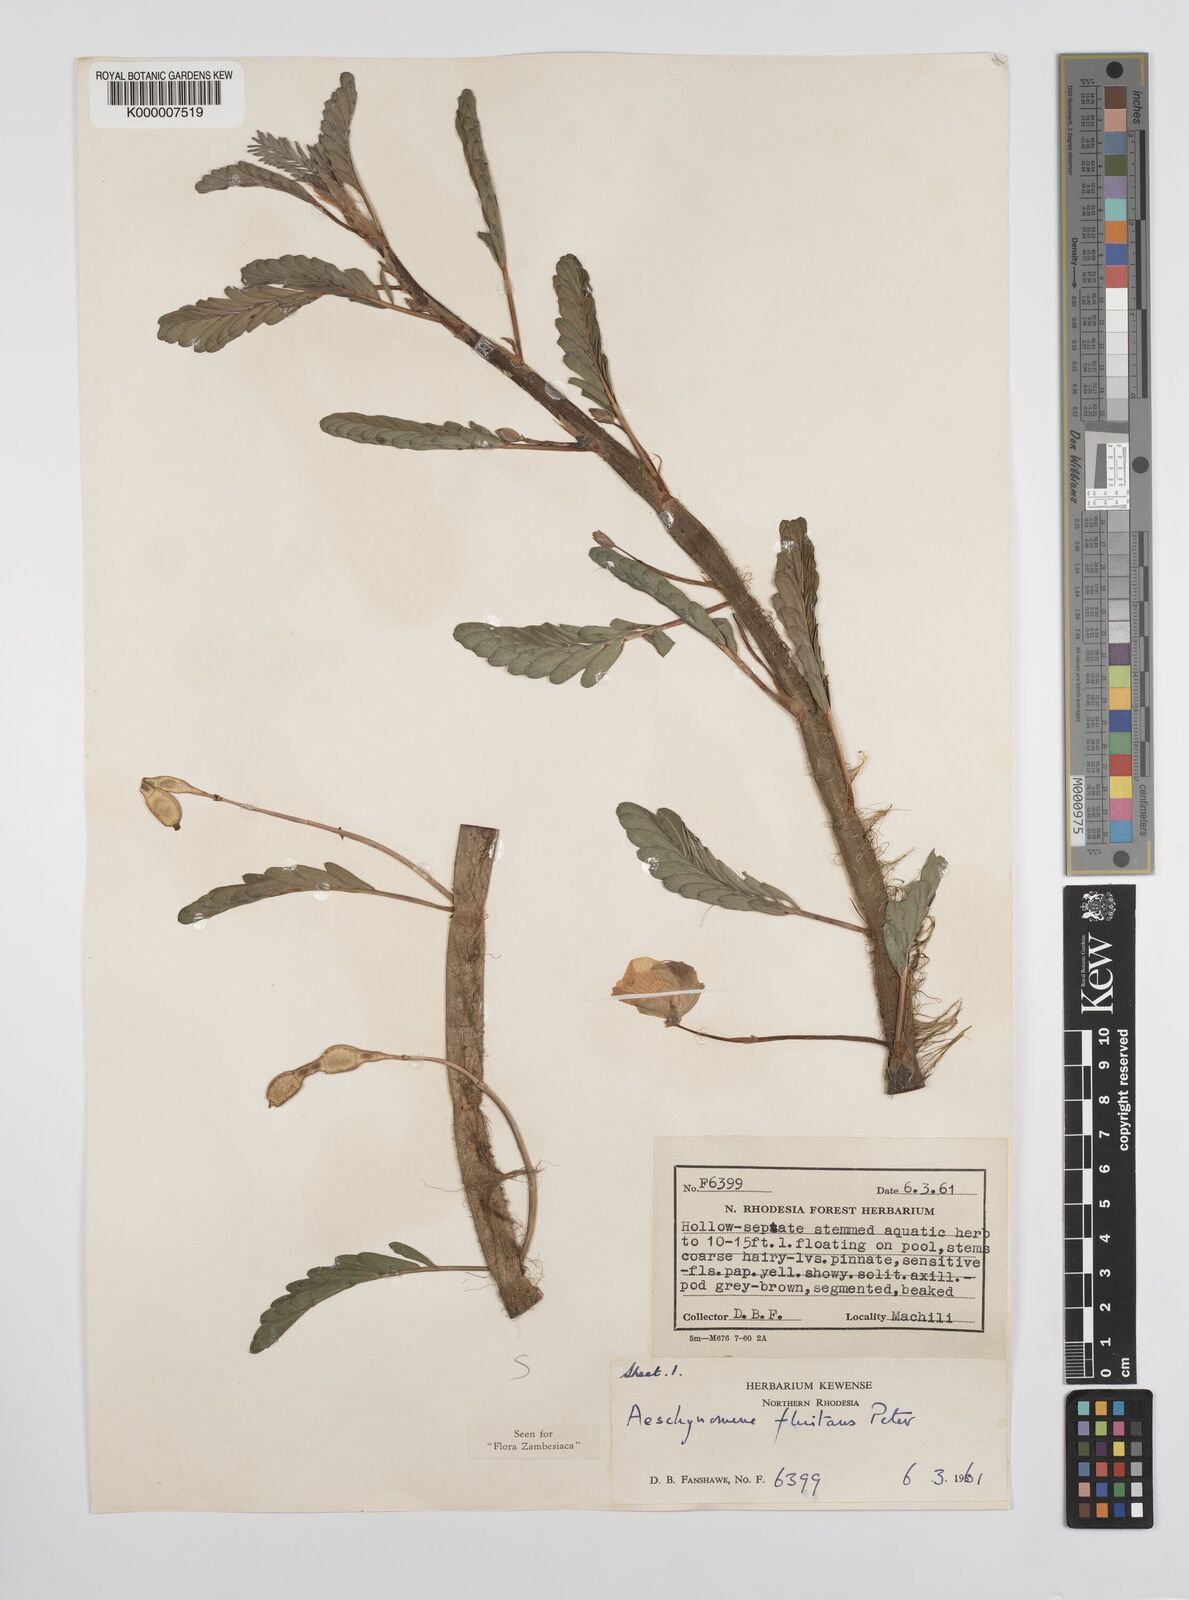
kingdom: Plantae
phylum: Tracheophyta
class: Magnoliopsida
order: Fabales
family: Fabaceae
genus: Aeschynomene
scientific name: Aeschynomene fluitans
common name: Giant water sensitive plant
